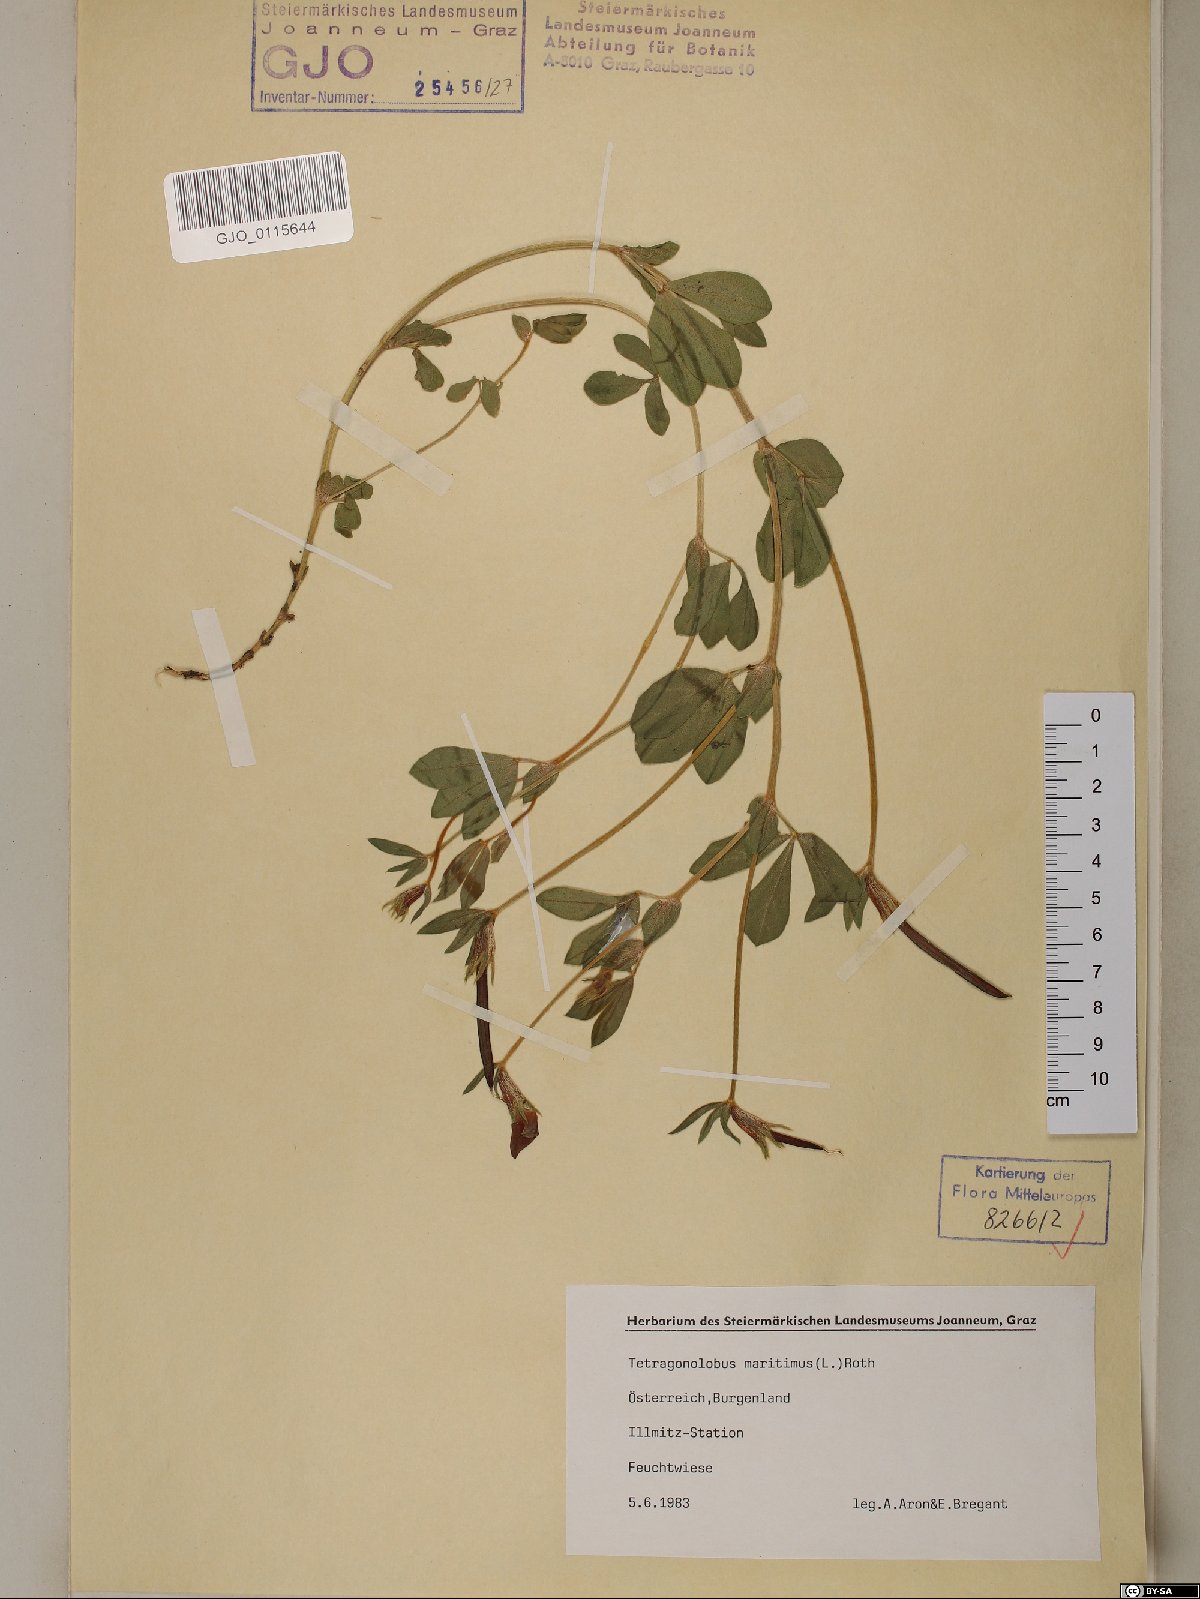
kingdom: Plantae
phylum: Tracheophyta
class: Magnoliopsida
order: Fabales
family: Fabaceae
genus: Lotus
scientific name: Lotus maritimus
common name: Dragon's-teeth
